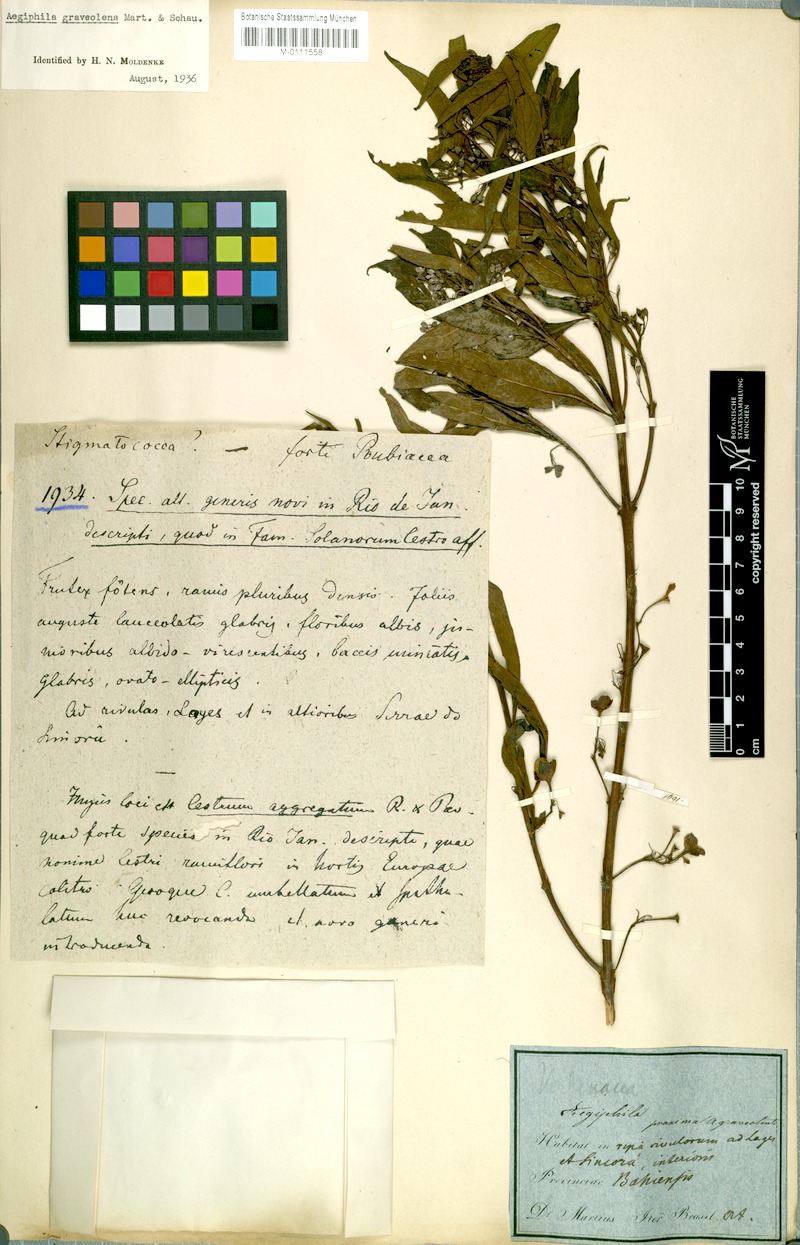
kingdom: Plantae
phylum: Tracheophyta
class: Magnoliopsida
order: Lamiales
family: Lamiaceae
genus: Aegiphila
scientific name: Aegiphila graveolens
